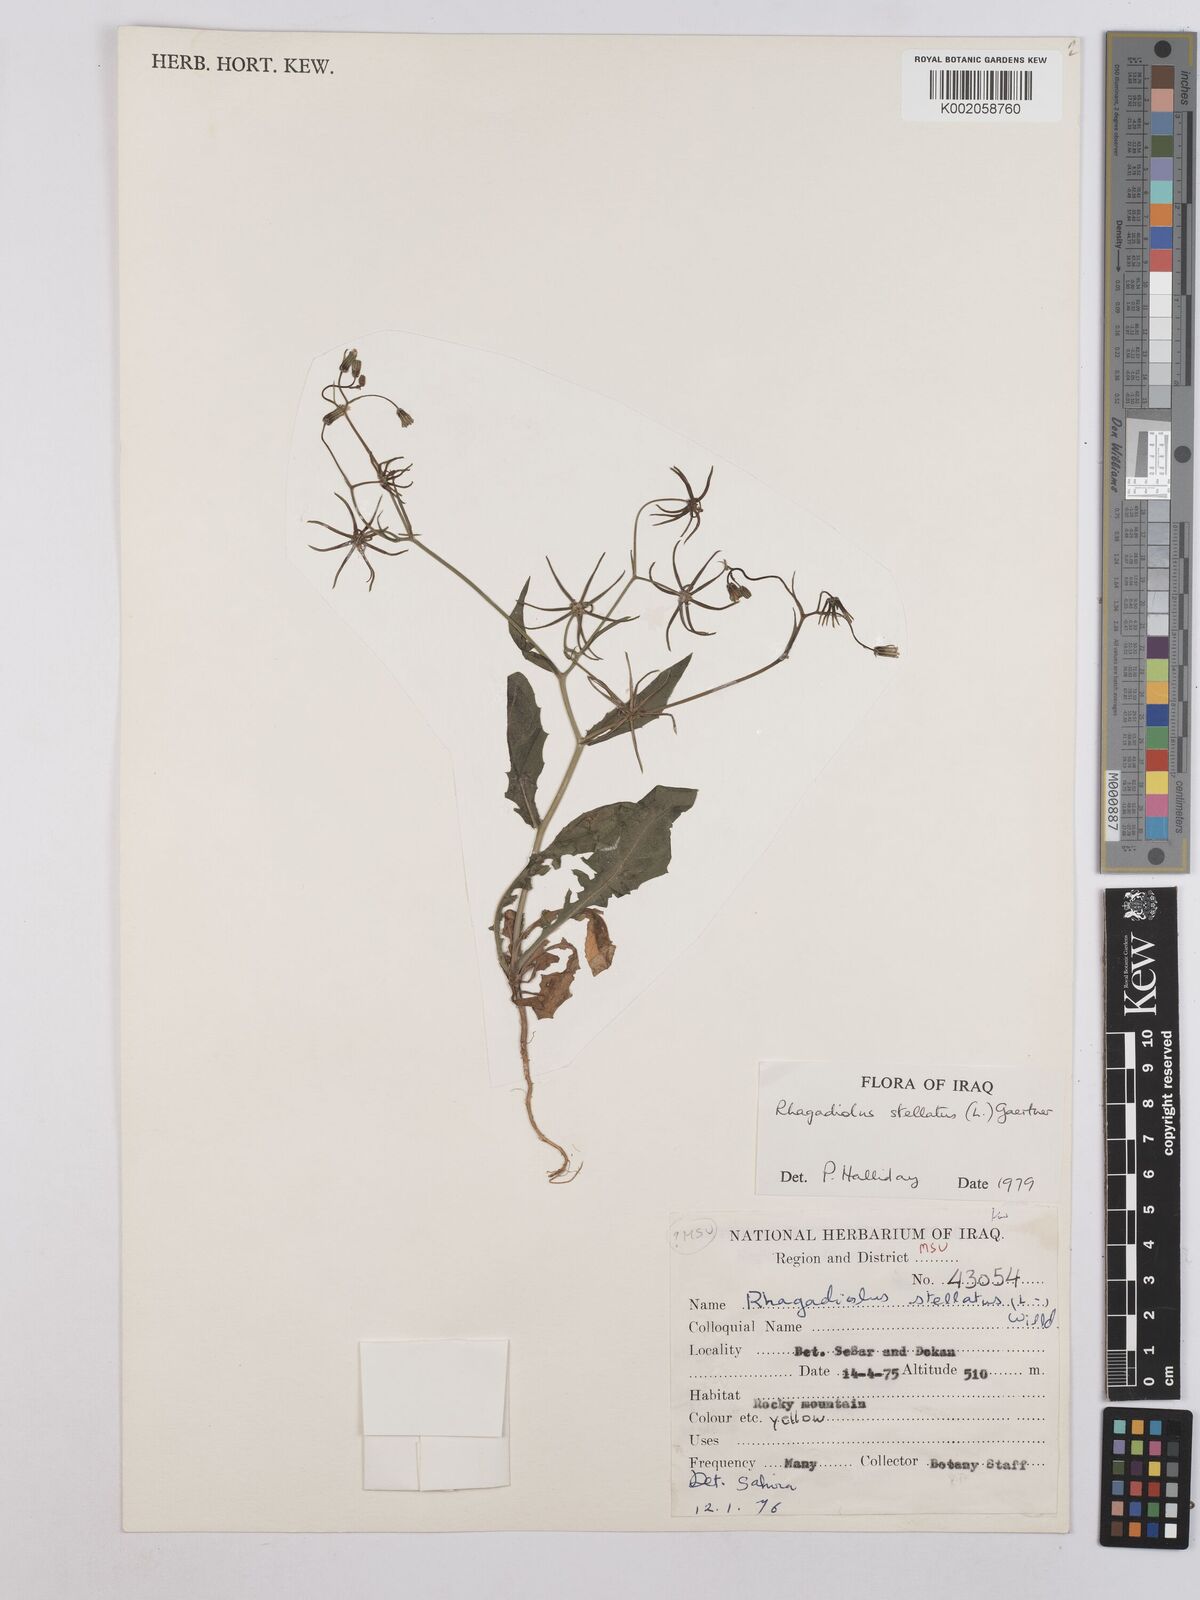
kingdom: Plantae
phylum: Tracheophyta
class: Magnoliopsida
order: Asterales
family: Asteraceae
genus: Rhagadiolus
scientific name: Rhagadiolus stellatus
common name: Star hawkbit
